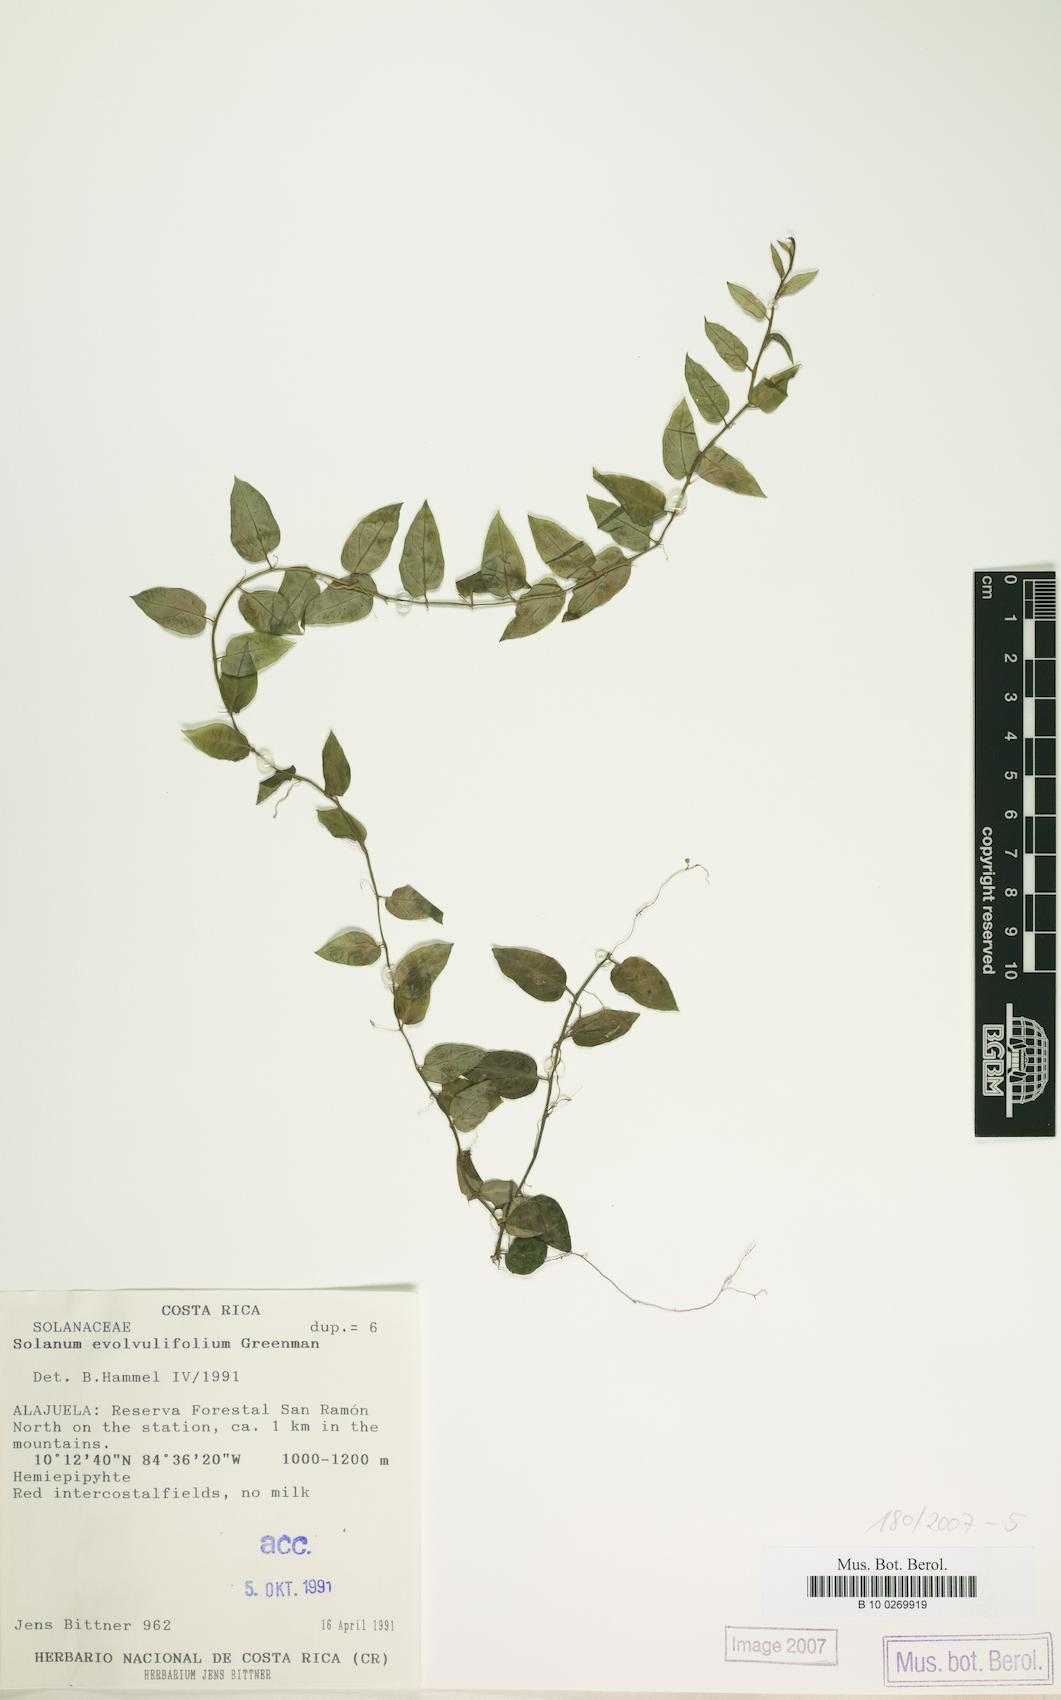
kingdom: Plantae
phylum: Tracheophyta
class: Magnoliopsida
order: Solanales
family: Solanaceae
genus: Solanum
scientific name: Solanum evolvulifolium
